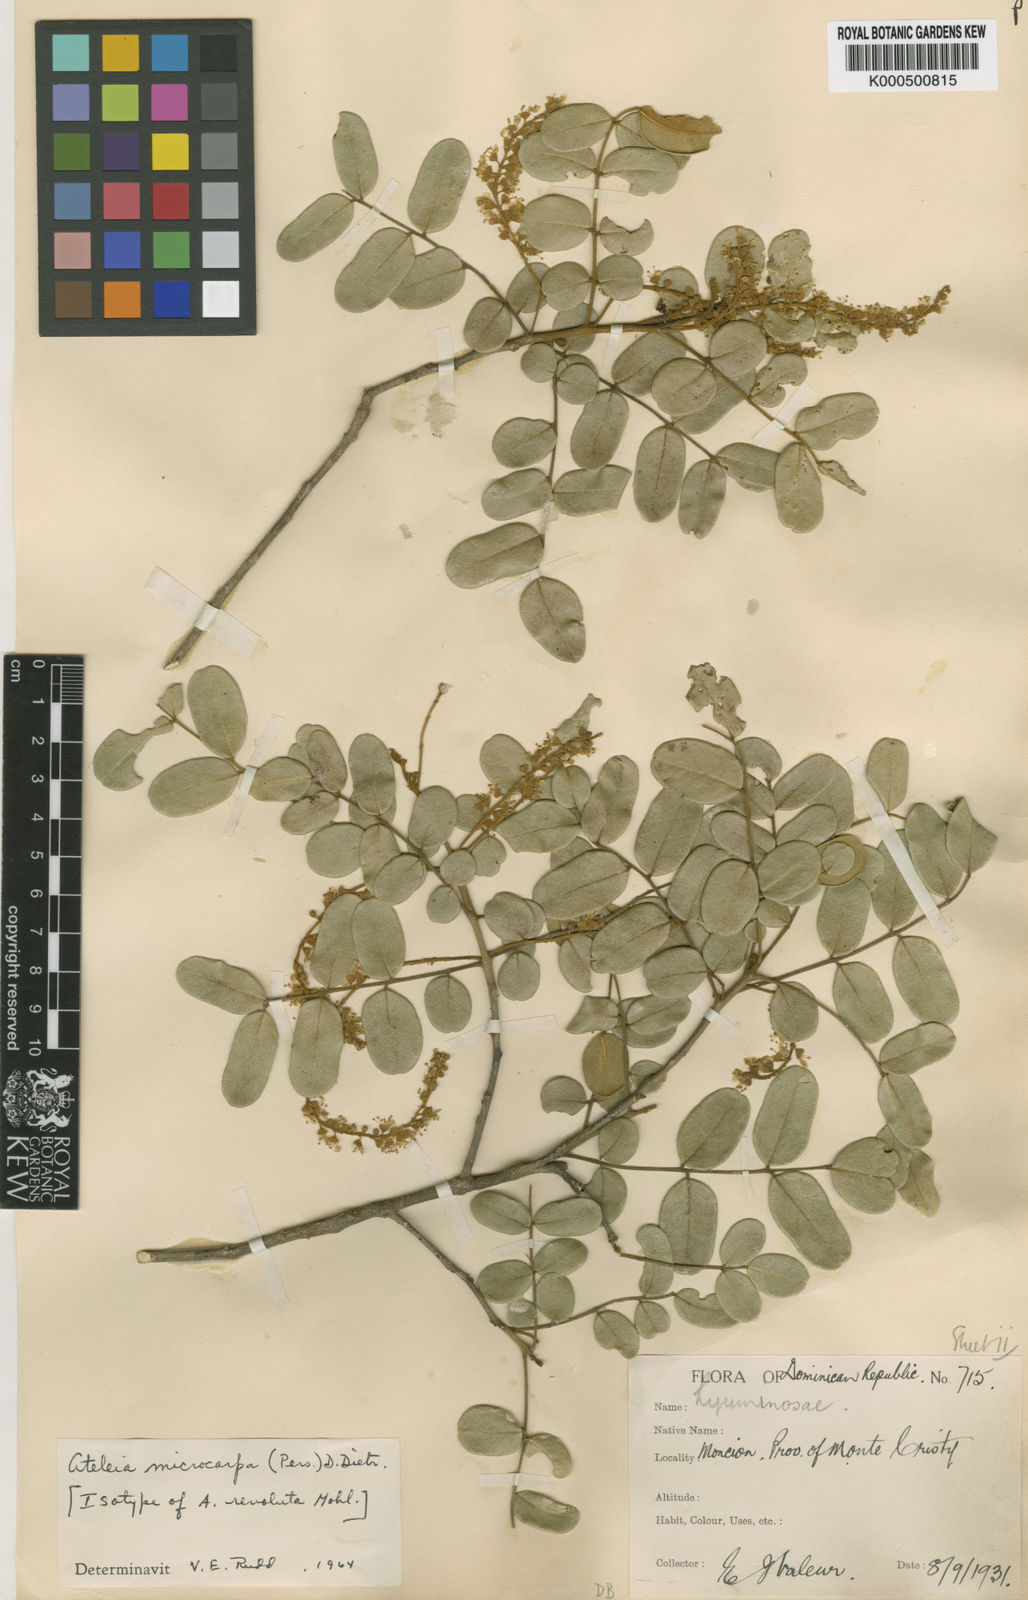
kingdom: Plantae
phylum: Tracheophyta
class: Magnoliopsida
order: Fabales
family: Fabaceae
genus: Ateleia
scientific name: Ateleia microcarpa
